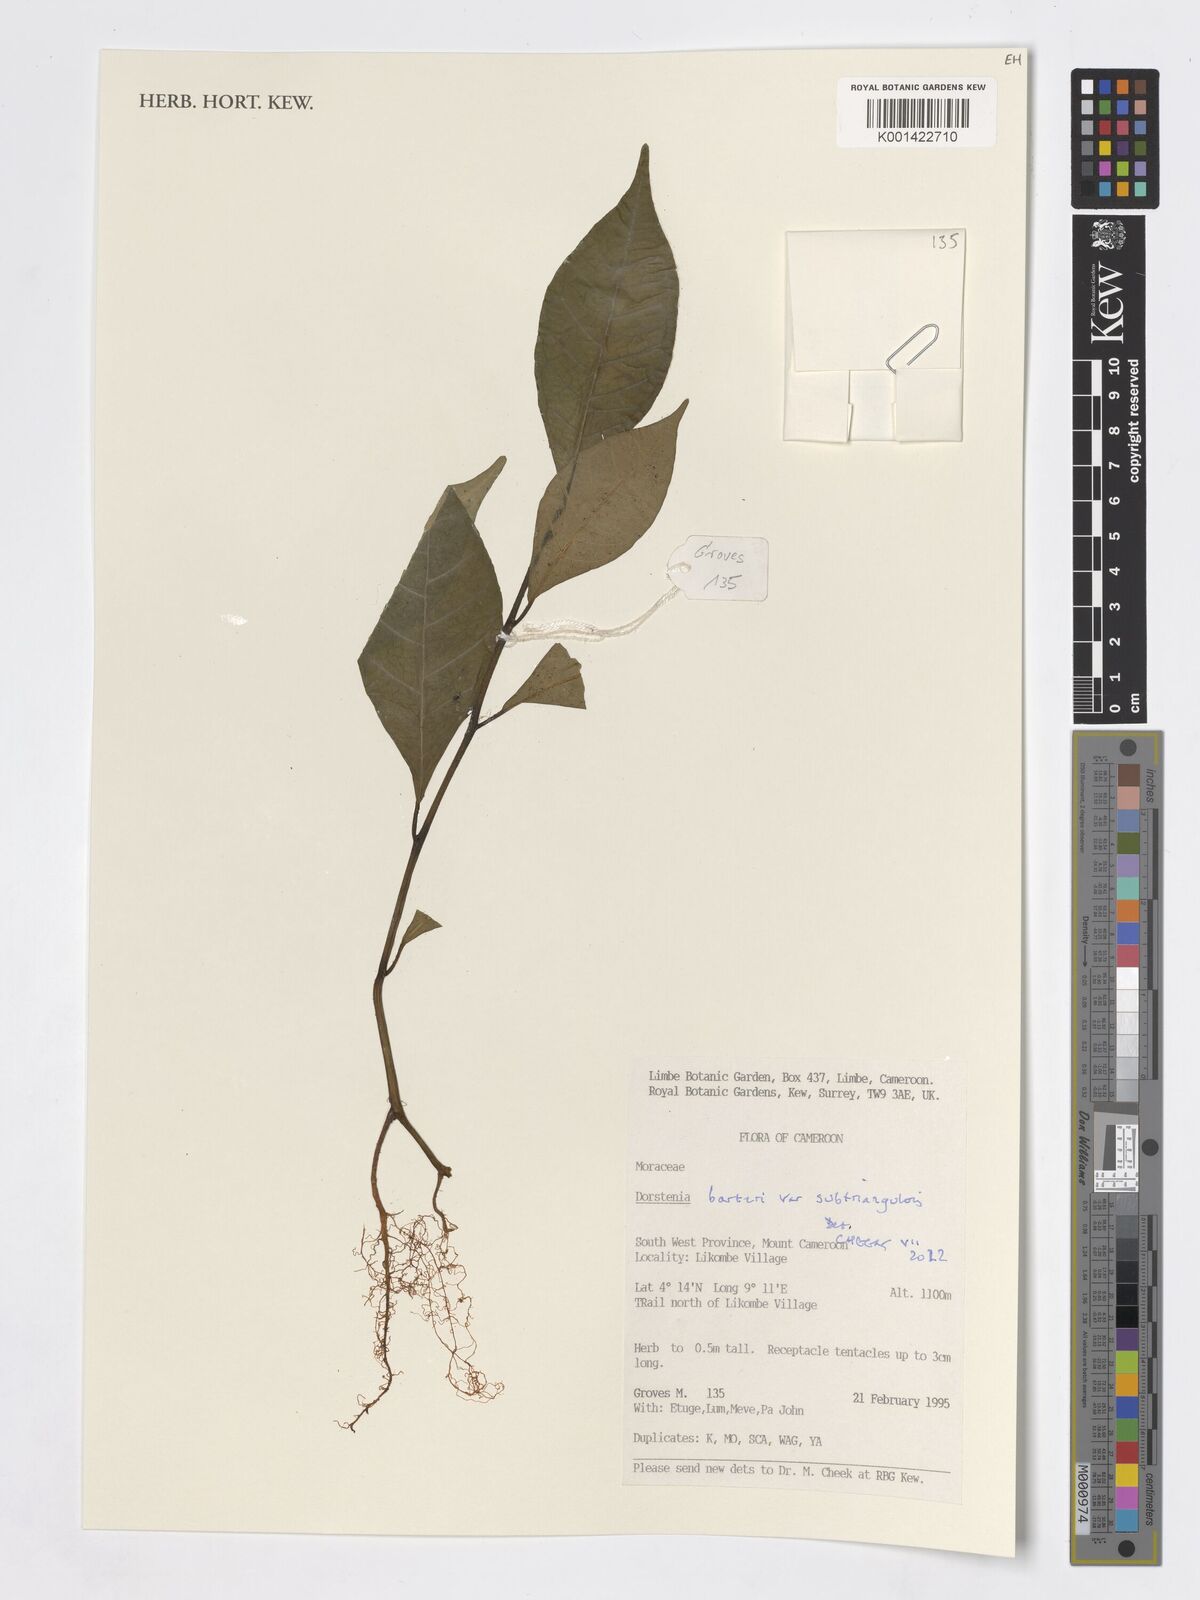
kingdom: Plantae
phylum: Tracheophyta
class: Magnoliopsida
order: Rosales
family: Moraceae
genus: Dorstenia
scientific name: Dorstenia barteri
